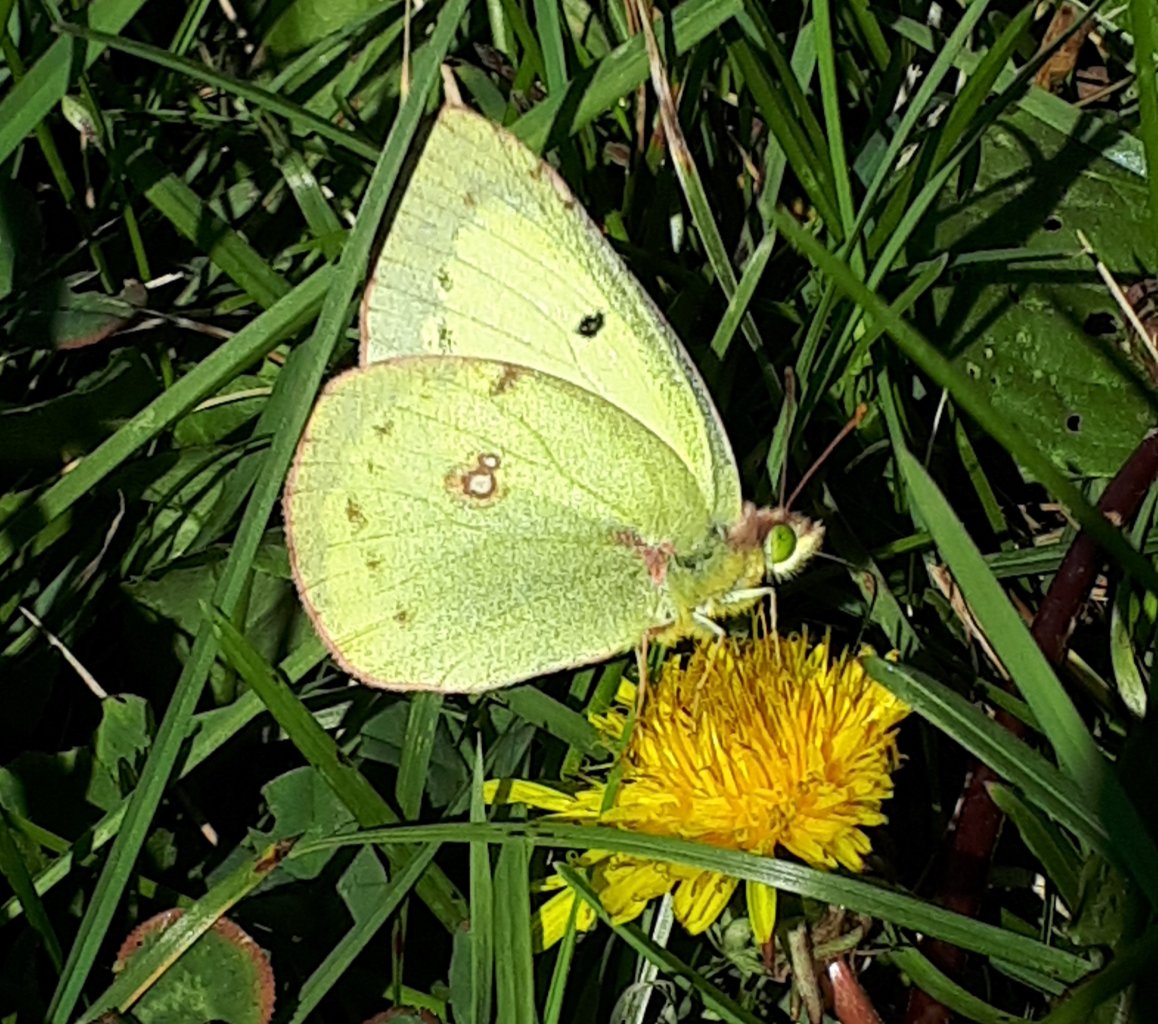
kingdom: Animalia
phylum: Arthropoda
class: Insecta
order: Lepidoptera
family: Pieridae
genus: Colias
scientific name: Colias philodice
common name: Clouded Sulphur
